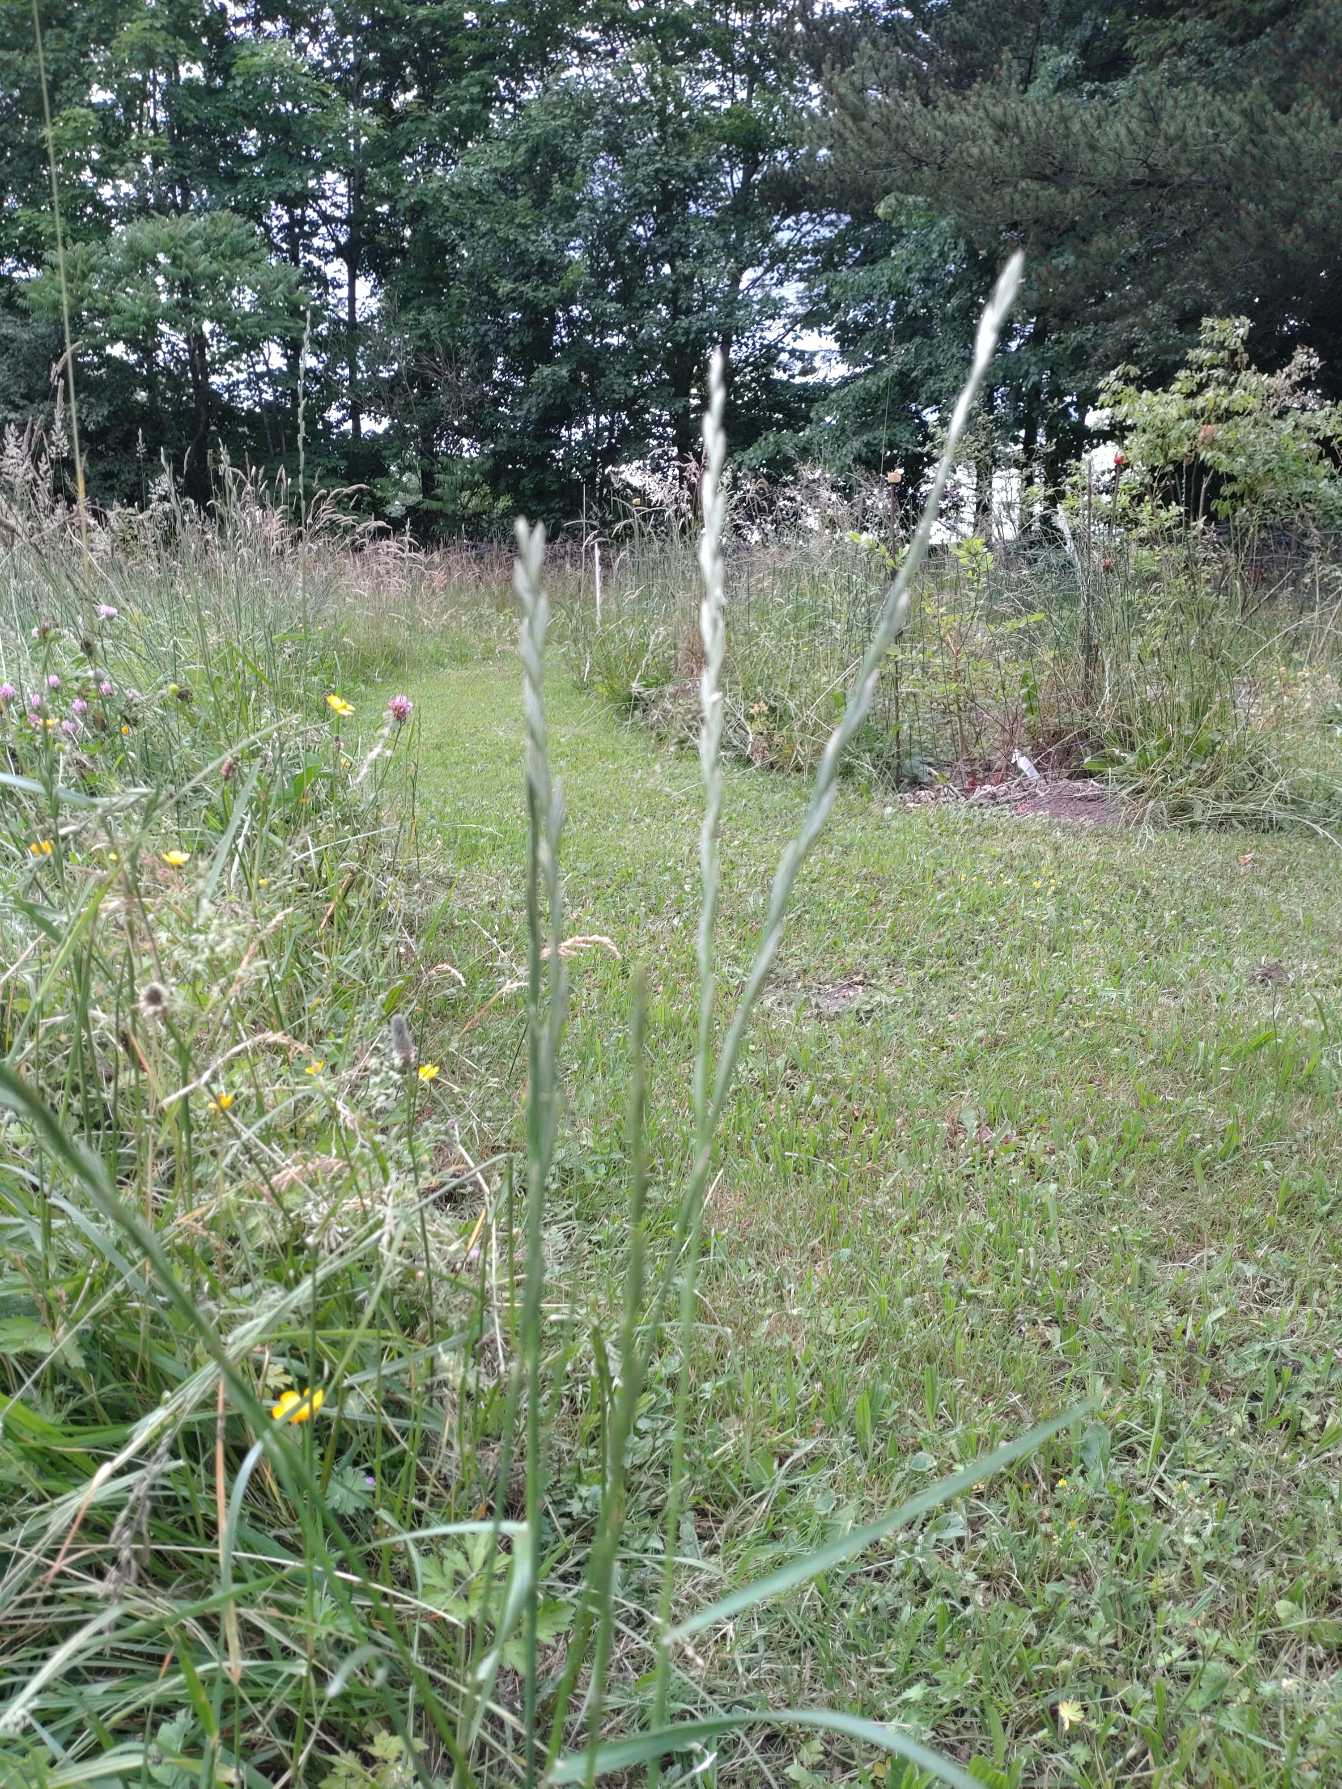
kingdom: Plantae
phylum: Tracheophyta
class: Liliopsida
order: Poales
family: Poaceae
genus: Lolium
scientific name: Lolium perenne
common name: Almindelig rajgræs
